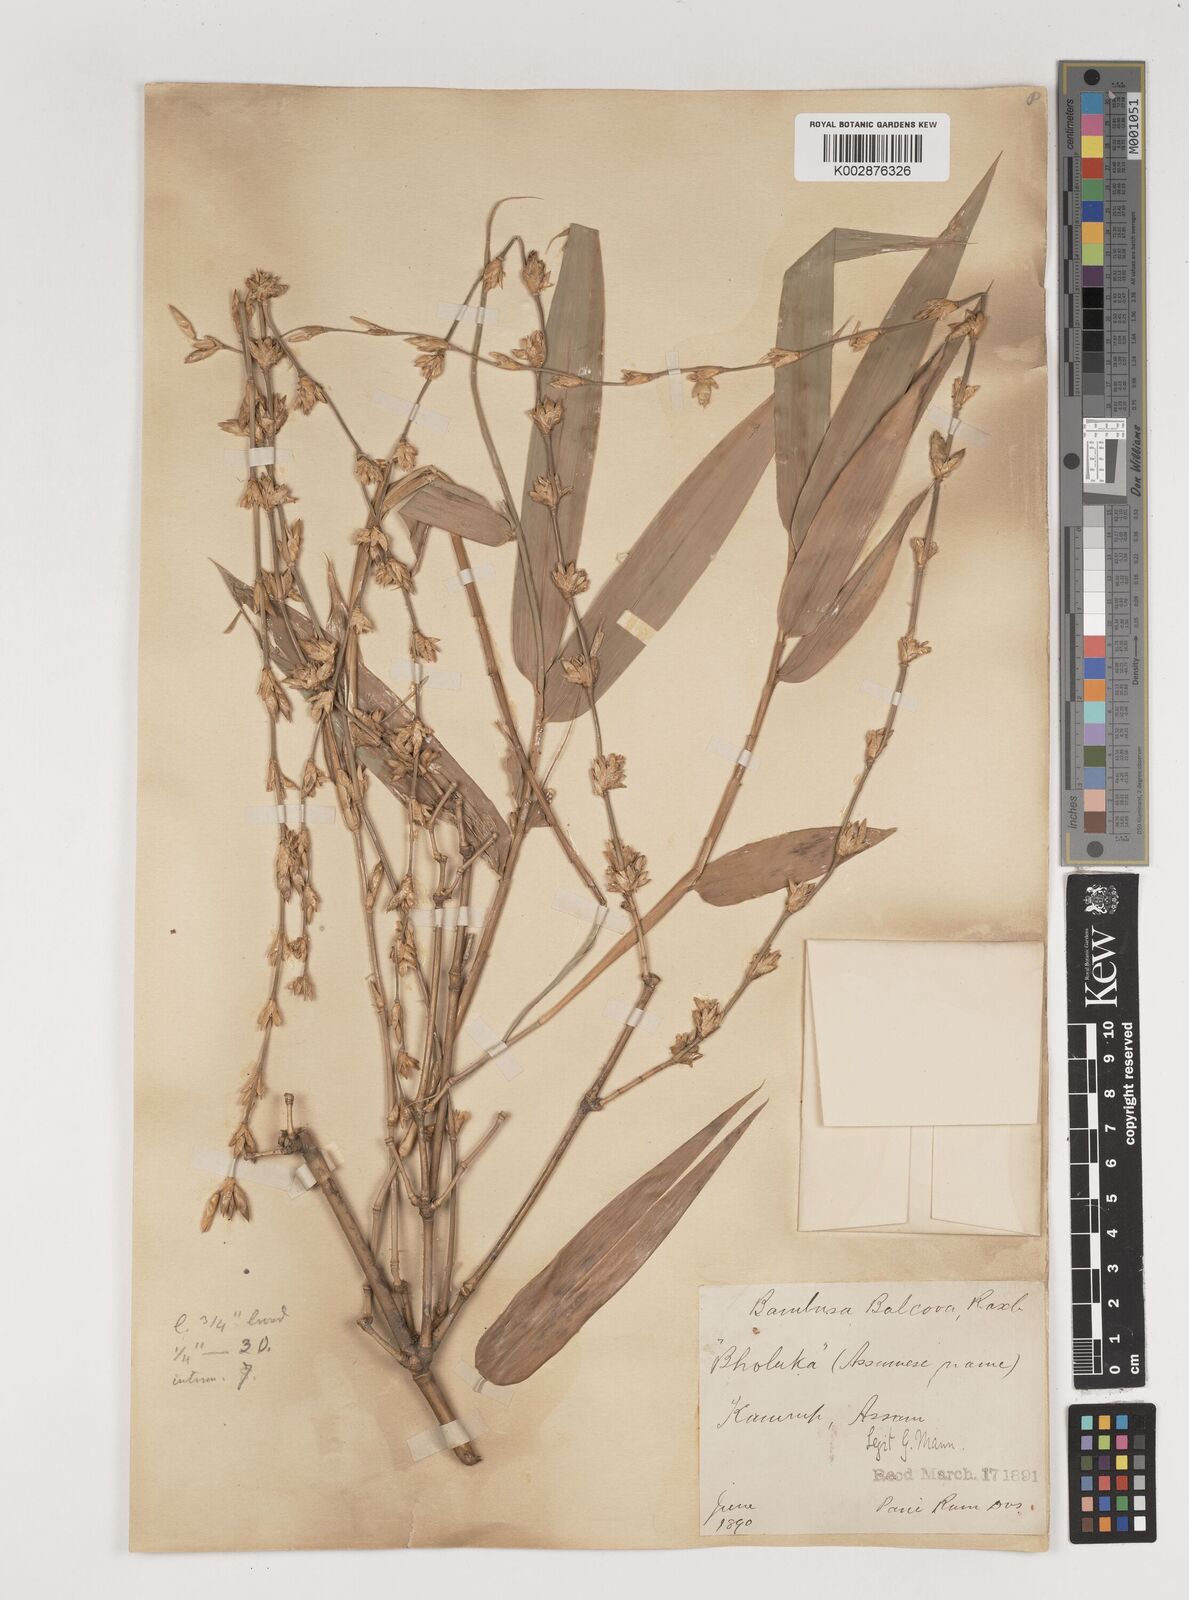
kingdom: Plantae
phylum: Tracheophyta
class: Liliopsida
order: Poales
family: Poaceae
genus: Bambusa
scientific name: Bambusa balcooa
